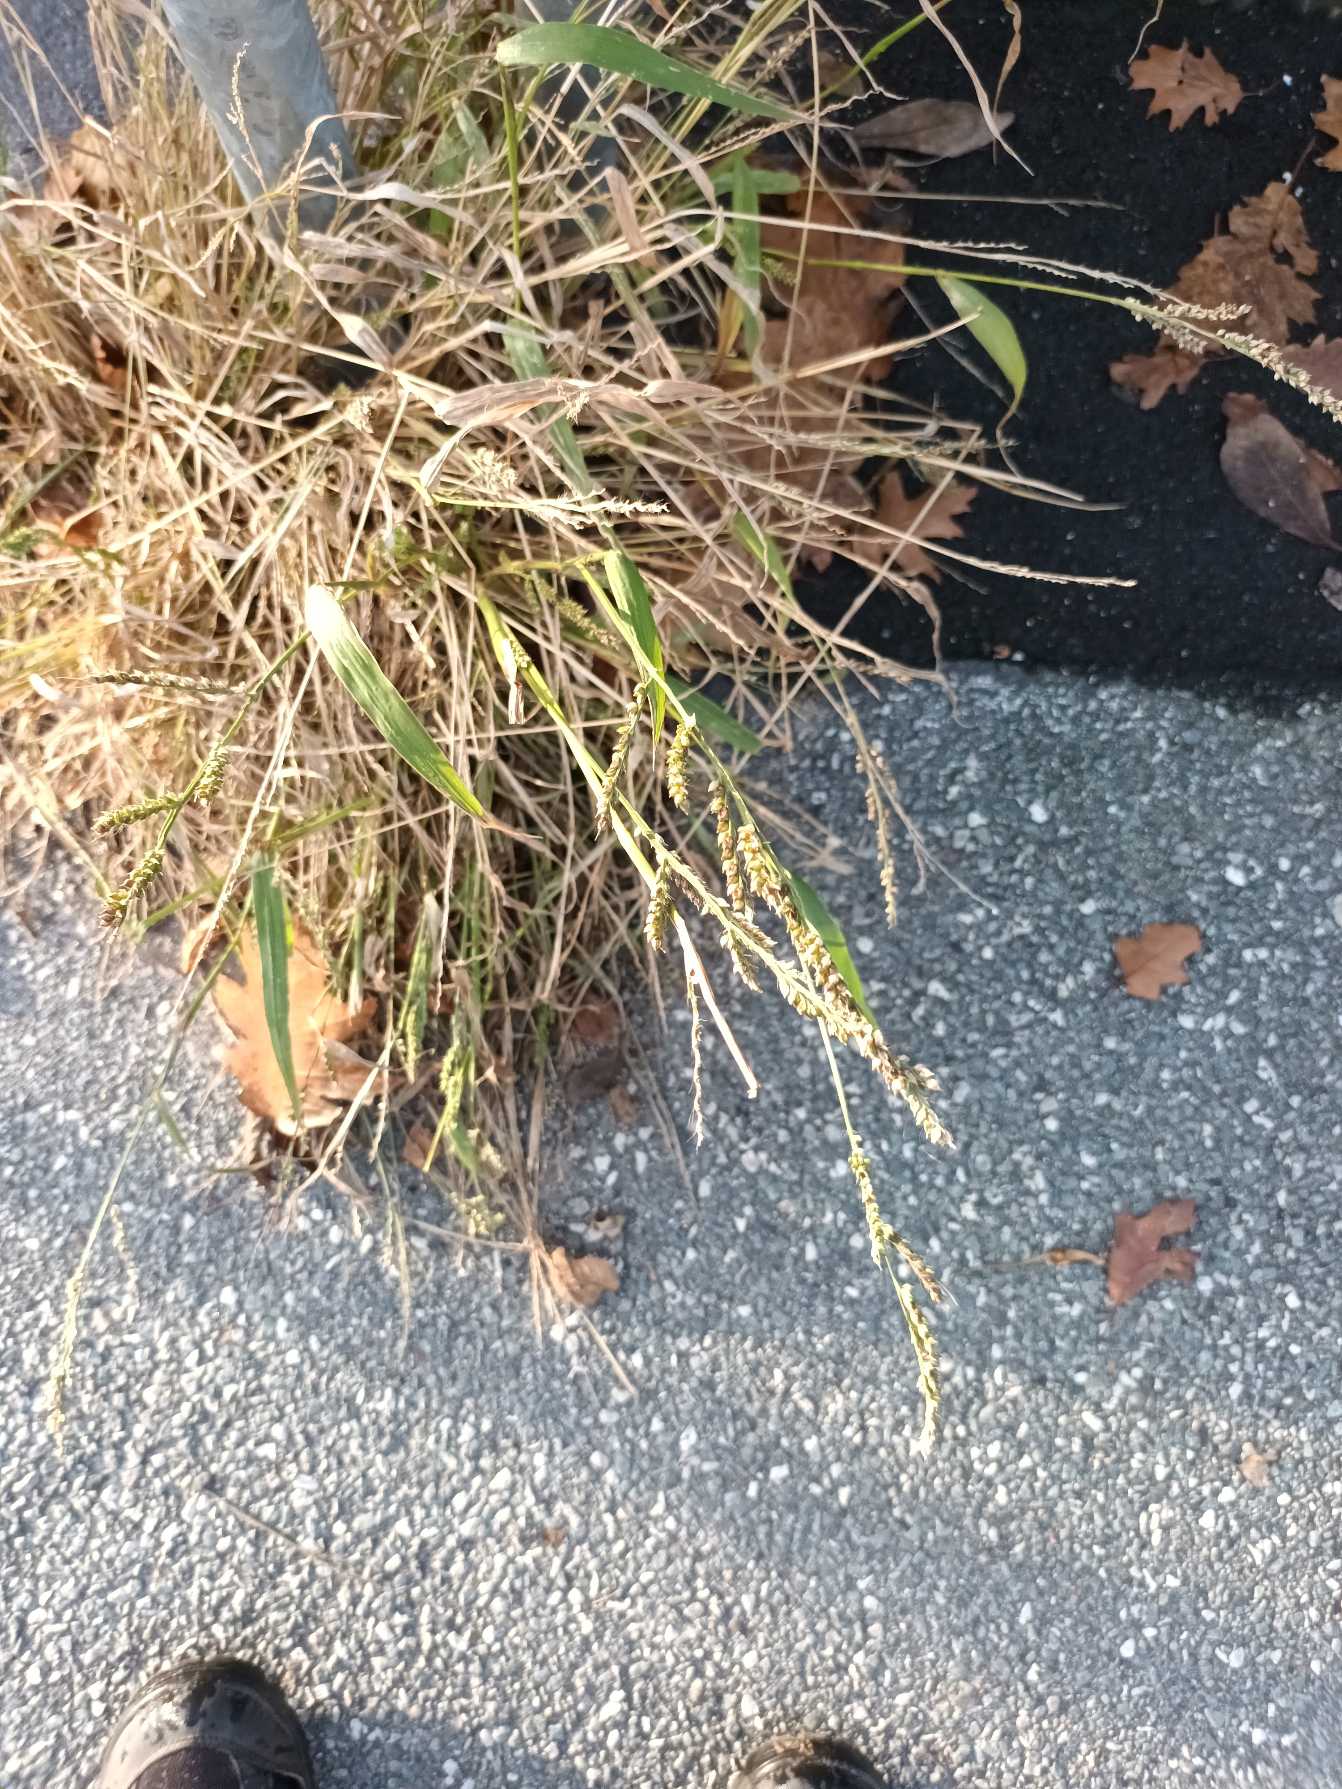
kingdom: Plantae
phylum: Tracheophyta
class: Liliopsida
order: Poales
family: Poaceae
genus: Echinochloa
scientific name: Echinochloa crus-galli
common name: Almindelig hanespore
